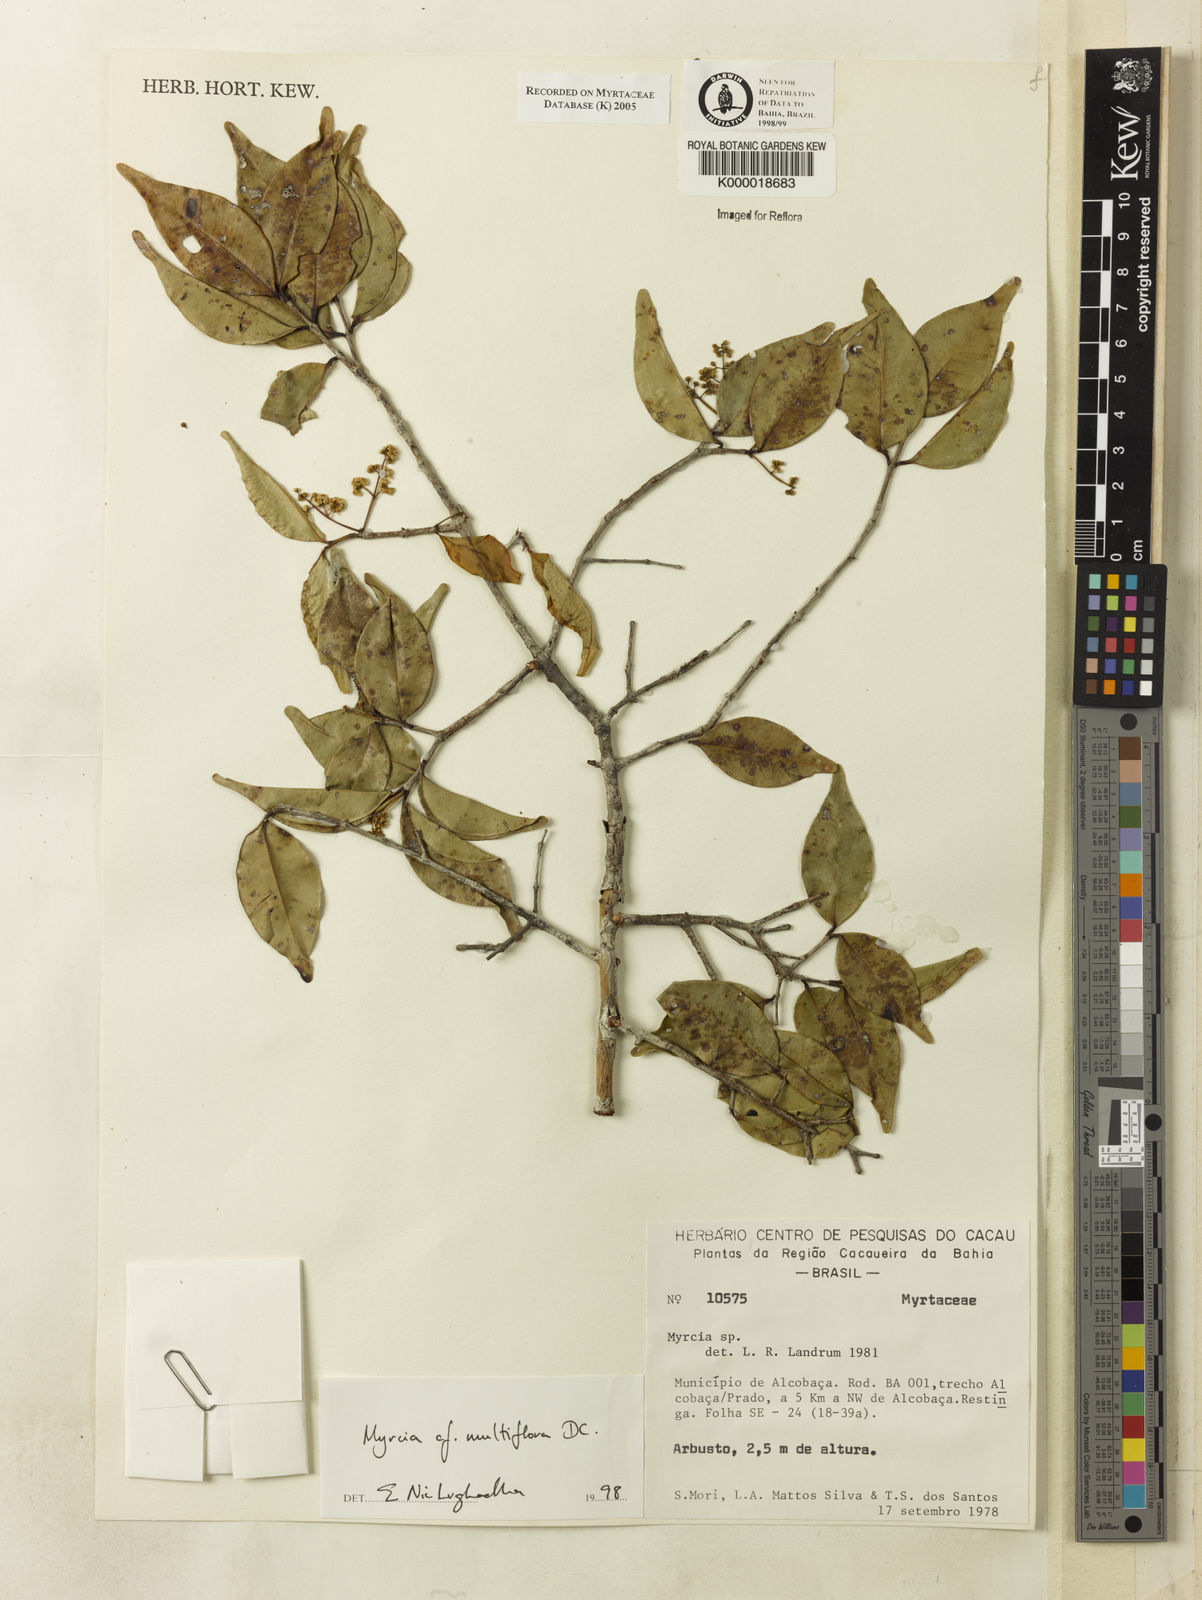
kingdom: Plantae
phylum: Tracheophyta
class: Magnoliopsida
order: Myrtales
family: Myrtaceae
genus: Myrcia
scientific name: Myrcia multiflora
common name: Pedra hume
